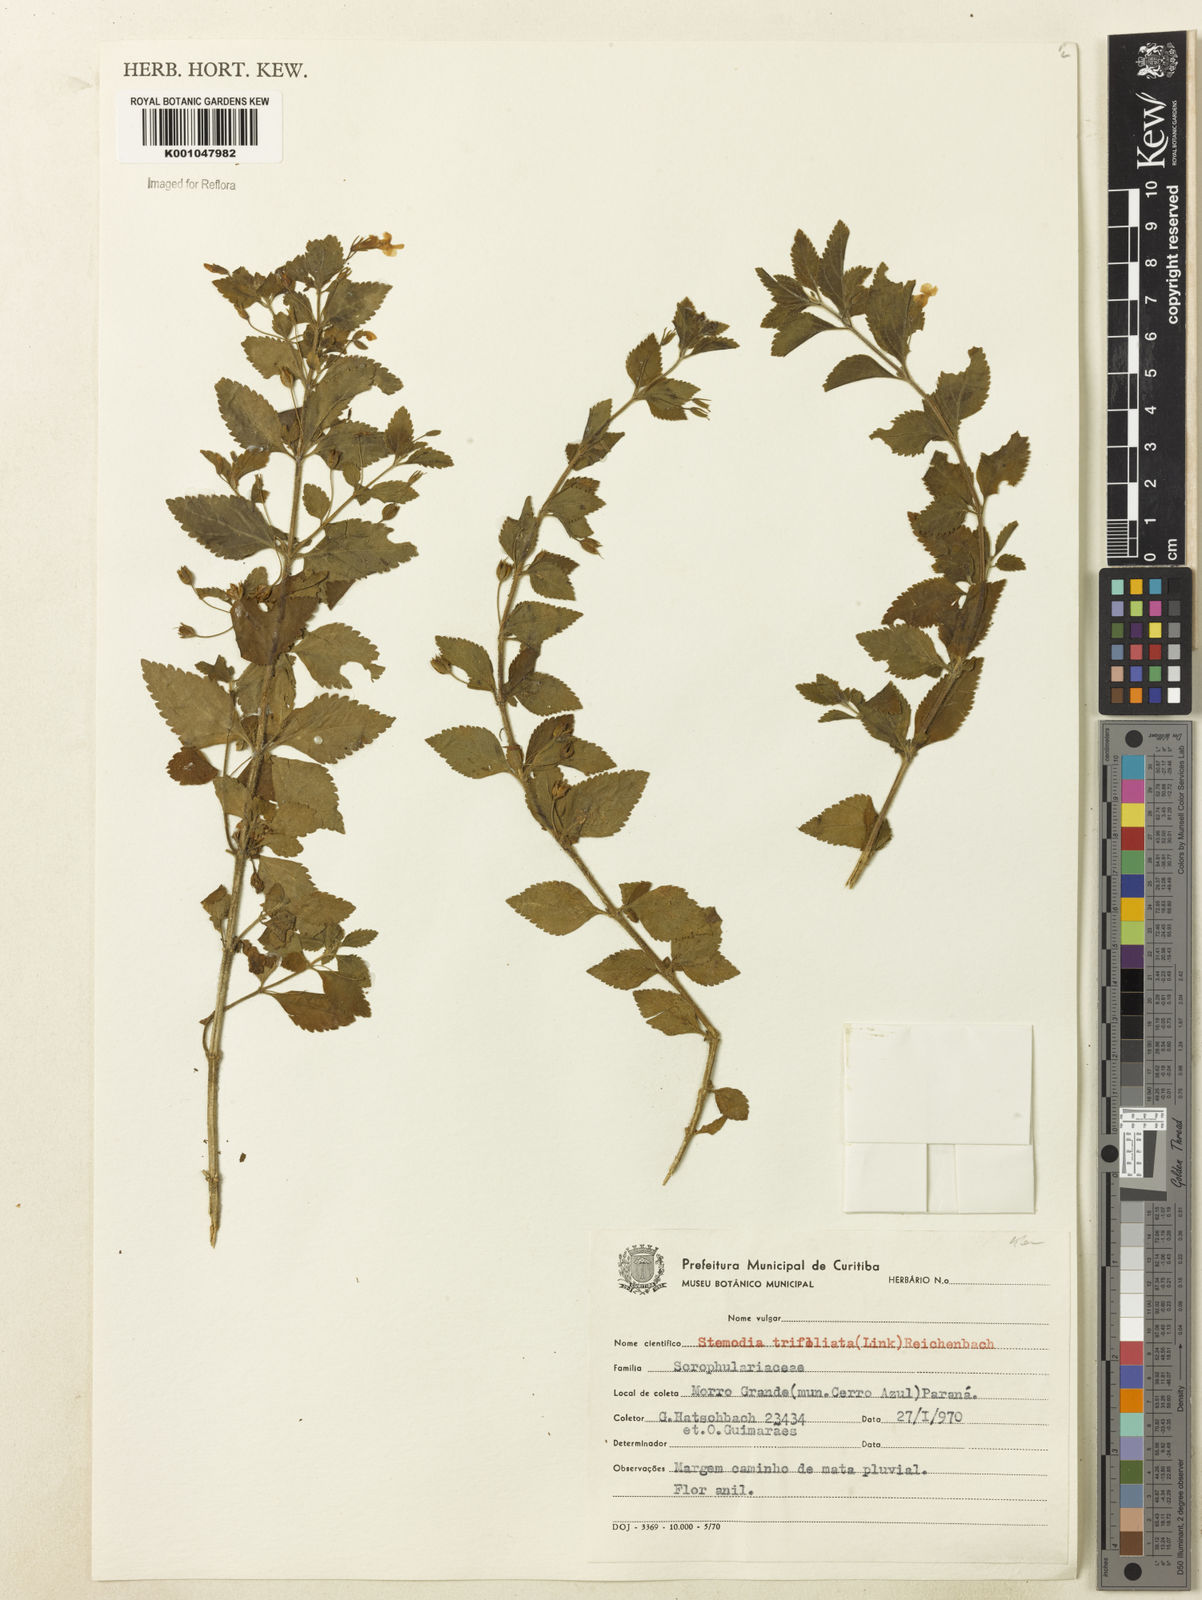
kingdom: Plantae
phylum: Tracheophyta
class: Magnoliopsida
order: Lamiales
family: Plantaginaceae
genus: Stemodia
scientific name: Stemodia trifoliata
